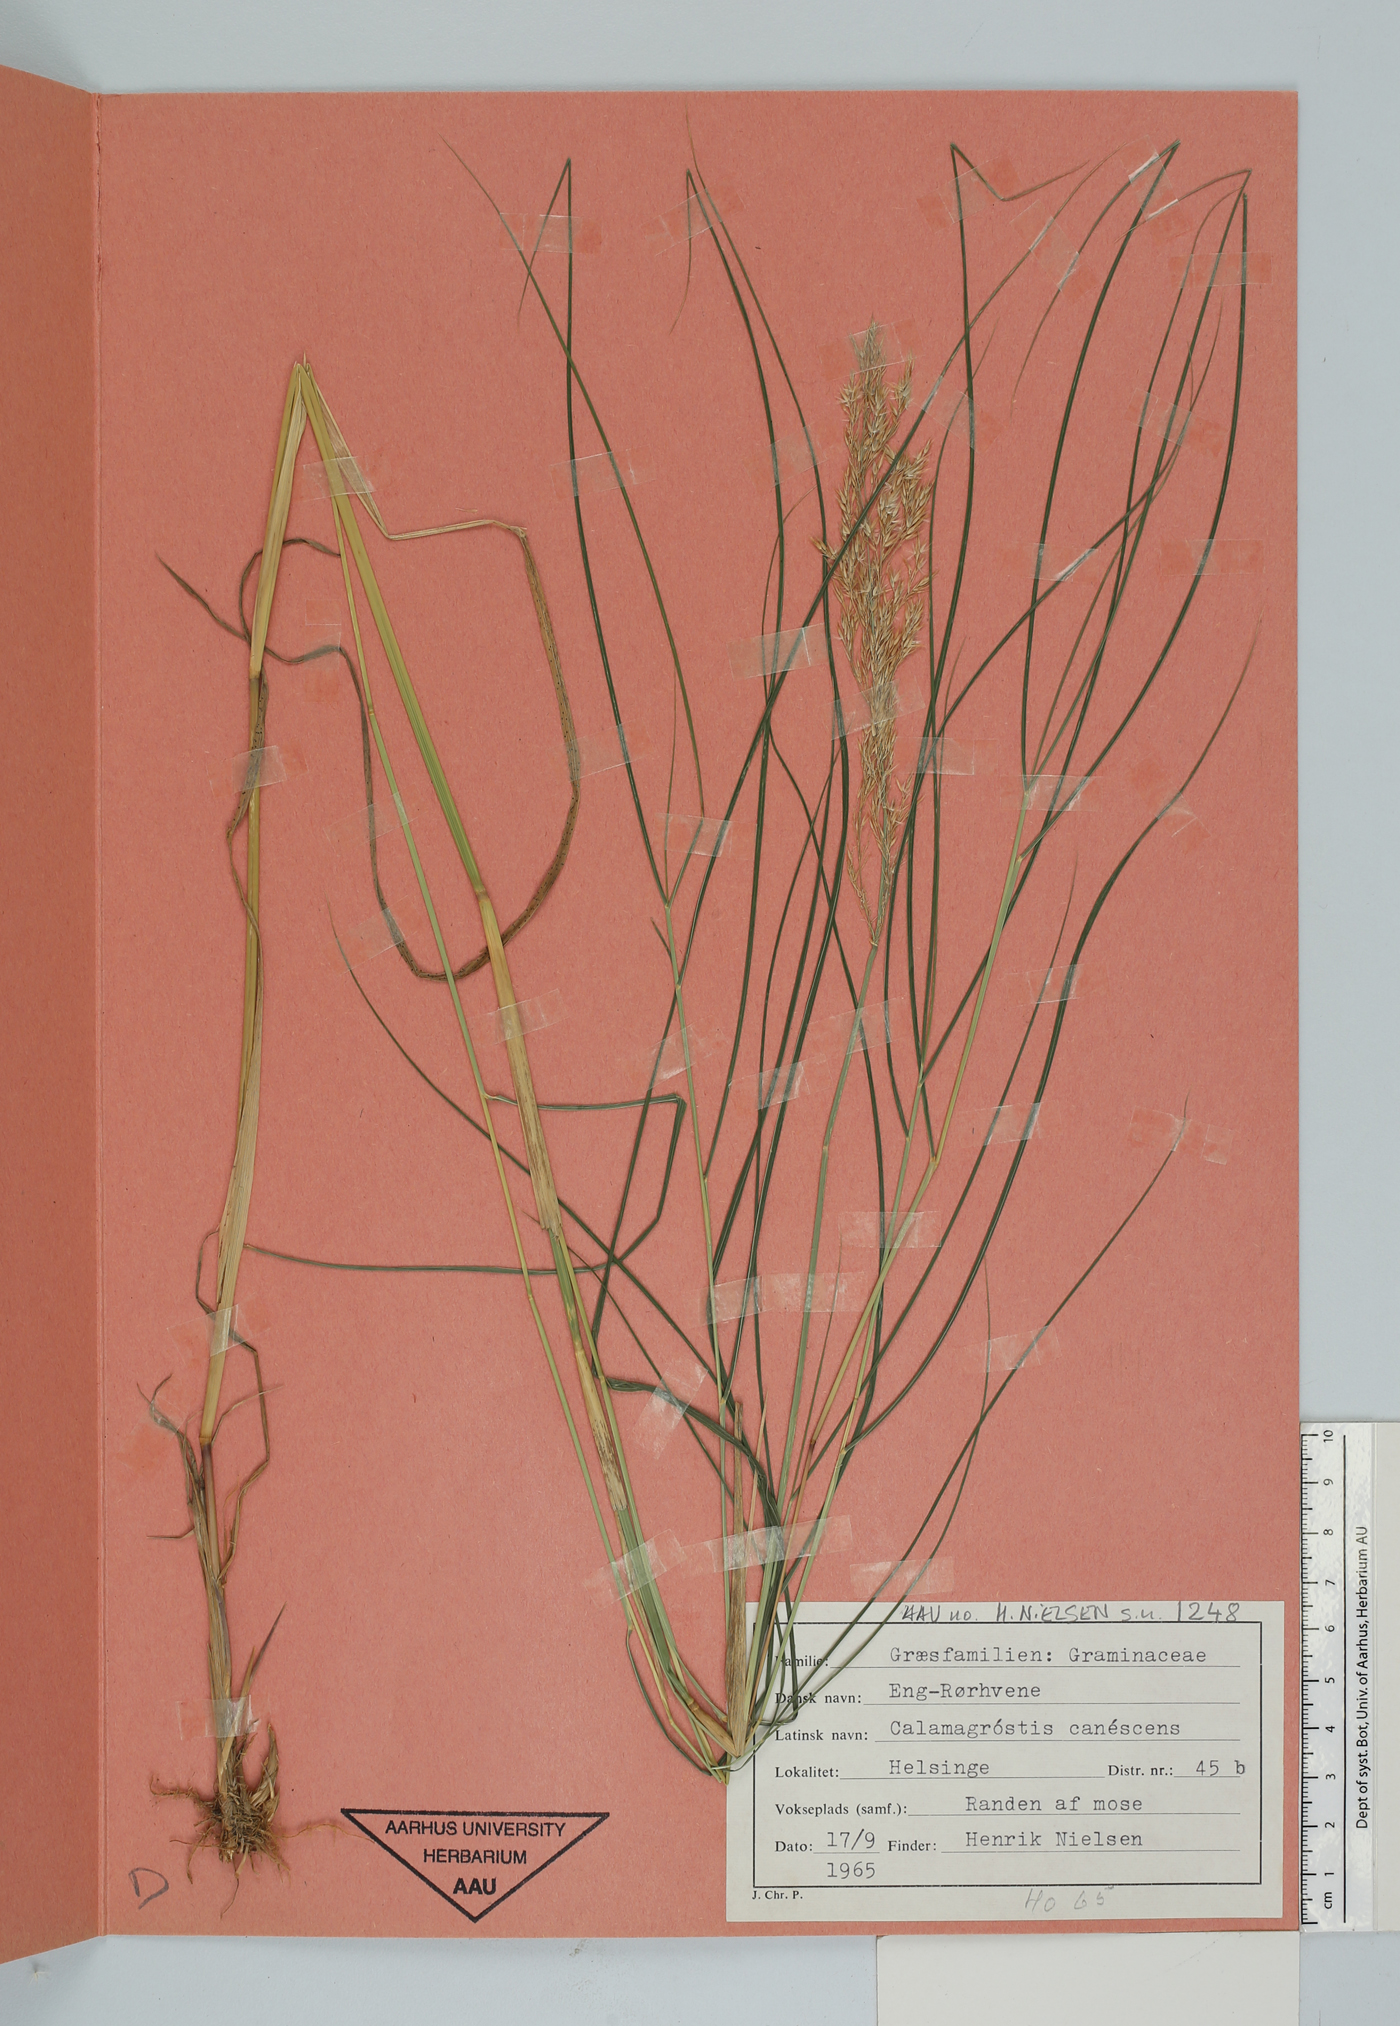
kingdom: Plantae
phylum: Tracheophyta
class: Liliopsida
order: Poales
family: Poaceae
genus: Calamagrostis
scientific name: Calamagrostis canescens
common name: Purple small-reed
